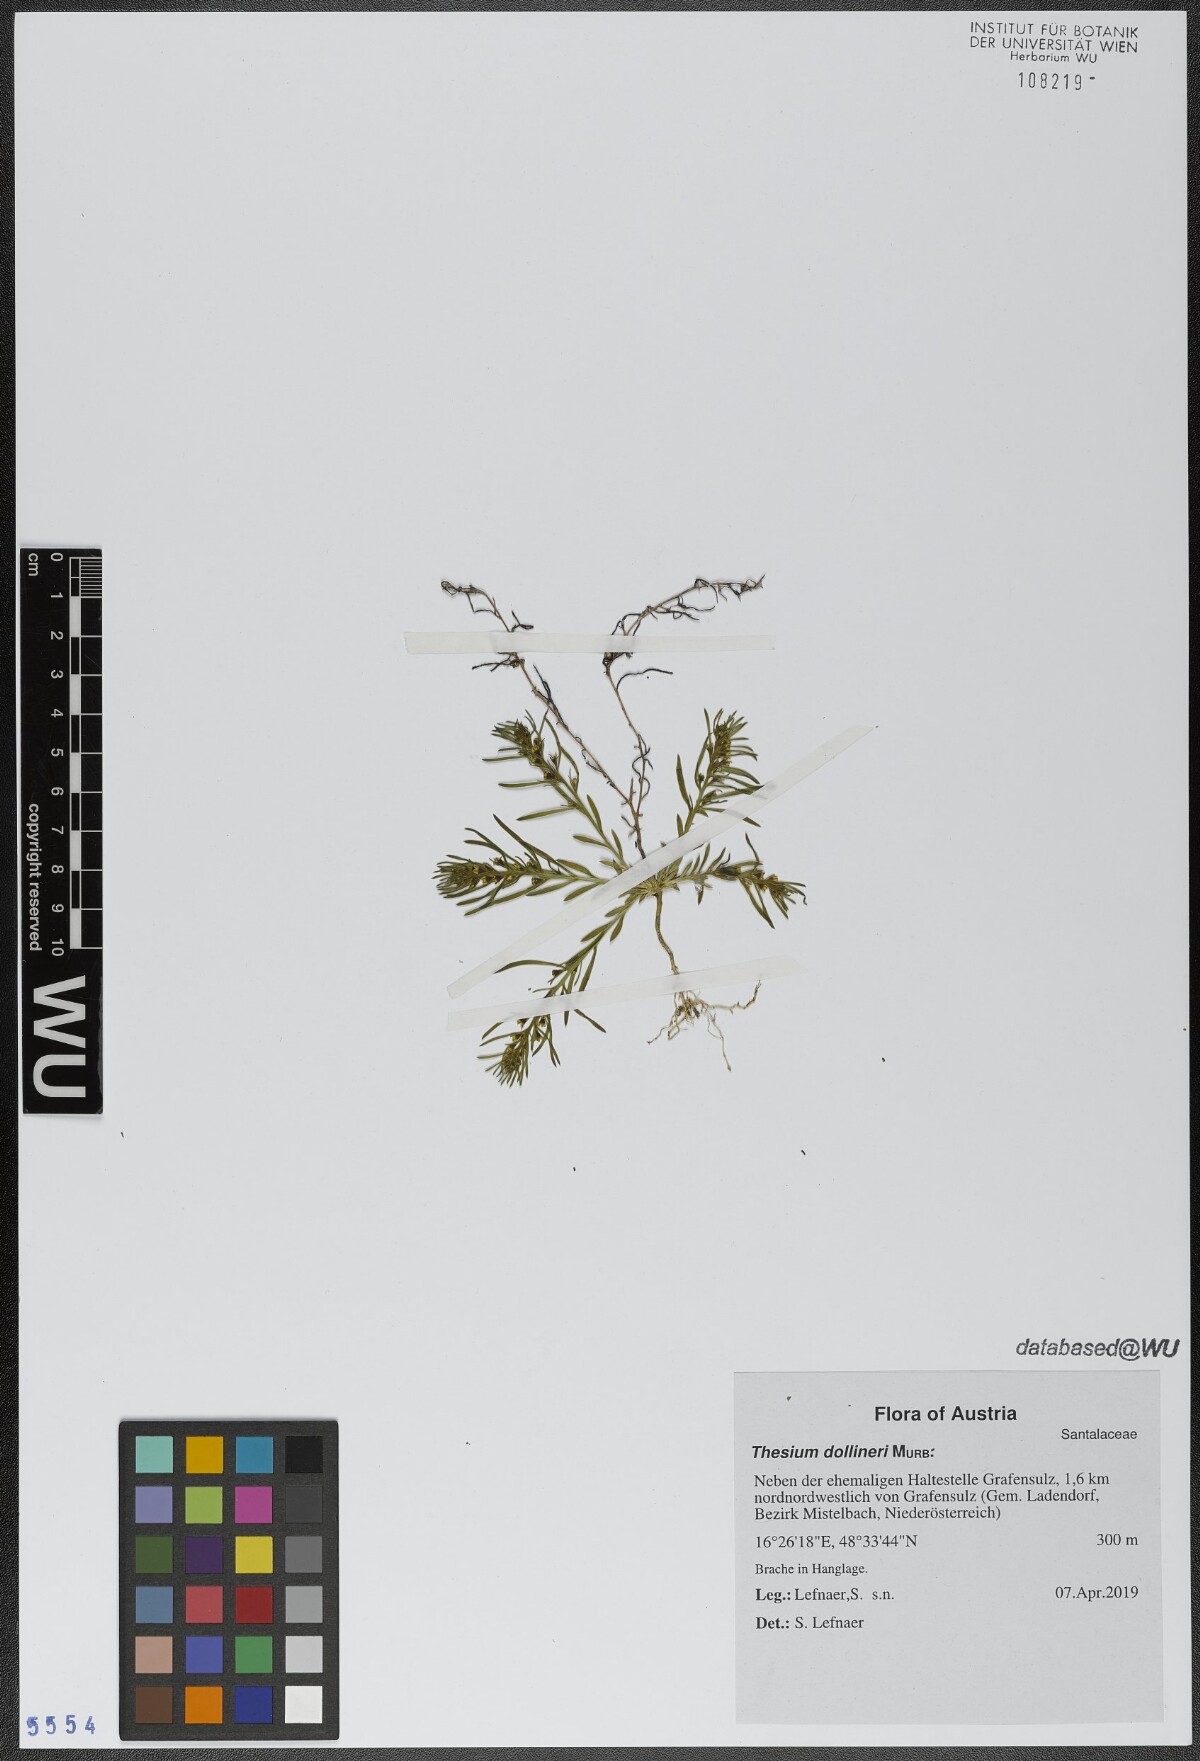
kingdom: Plantae
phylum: Tracheophyta
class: Magnoliopsida
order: Santalales
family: Thesiaceae
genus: Thesium
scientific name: Thesium dollineri
